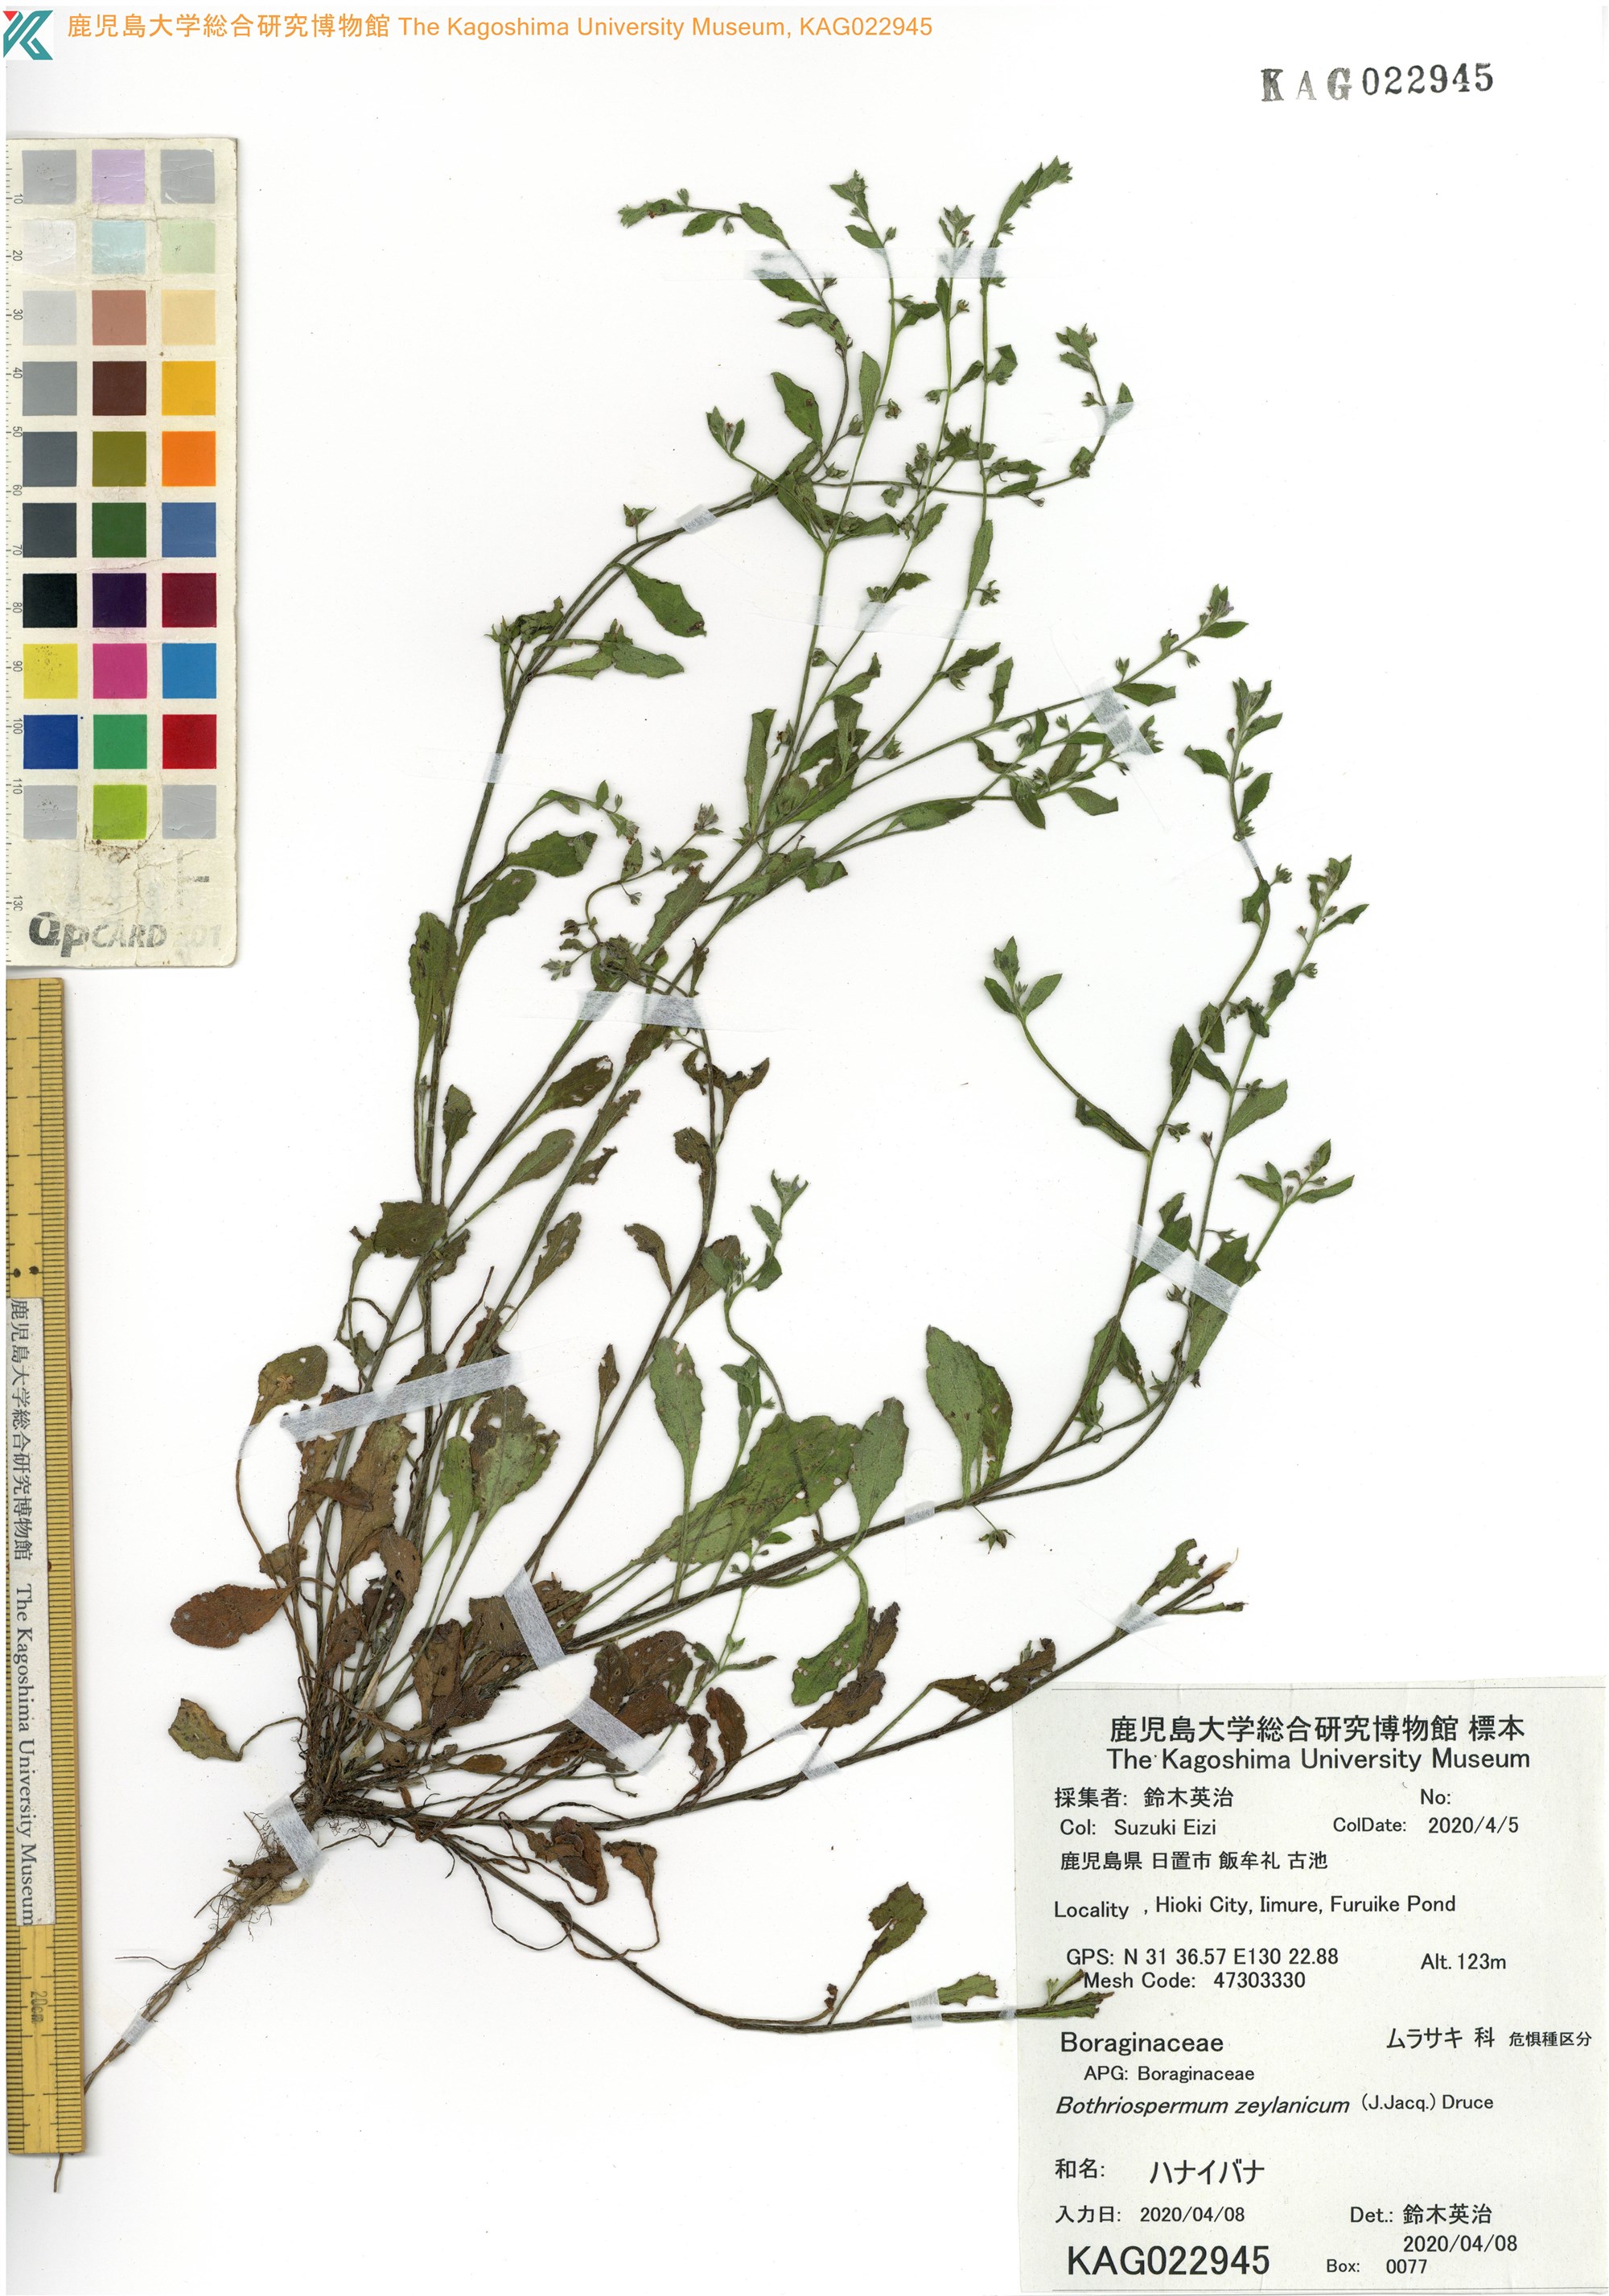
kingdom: Plantae
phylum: Tracheophyta
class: Magnoliopsida
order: Boraginales
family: Boraginaceae
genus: Bothriospermum
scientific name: Bothriospermum zeylanicum
